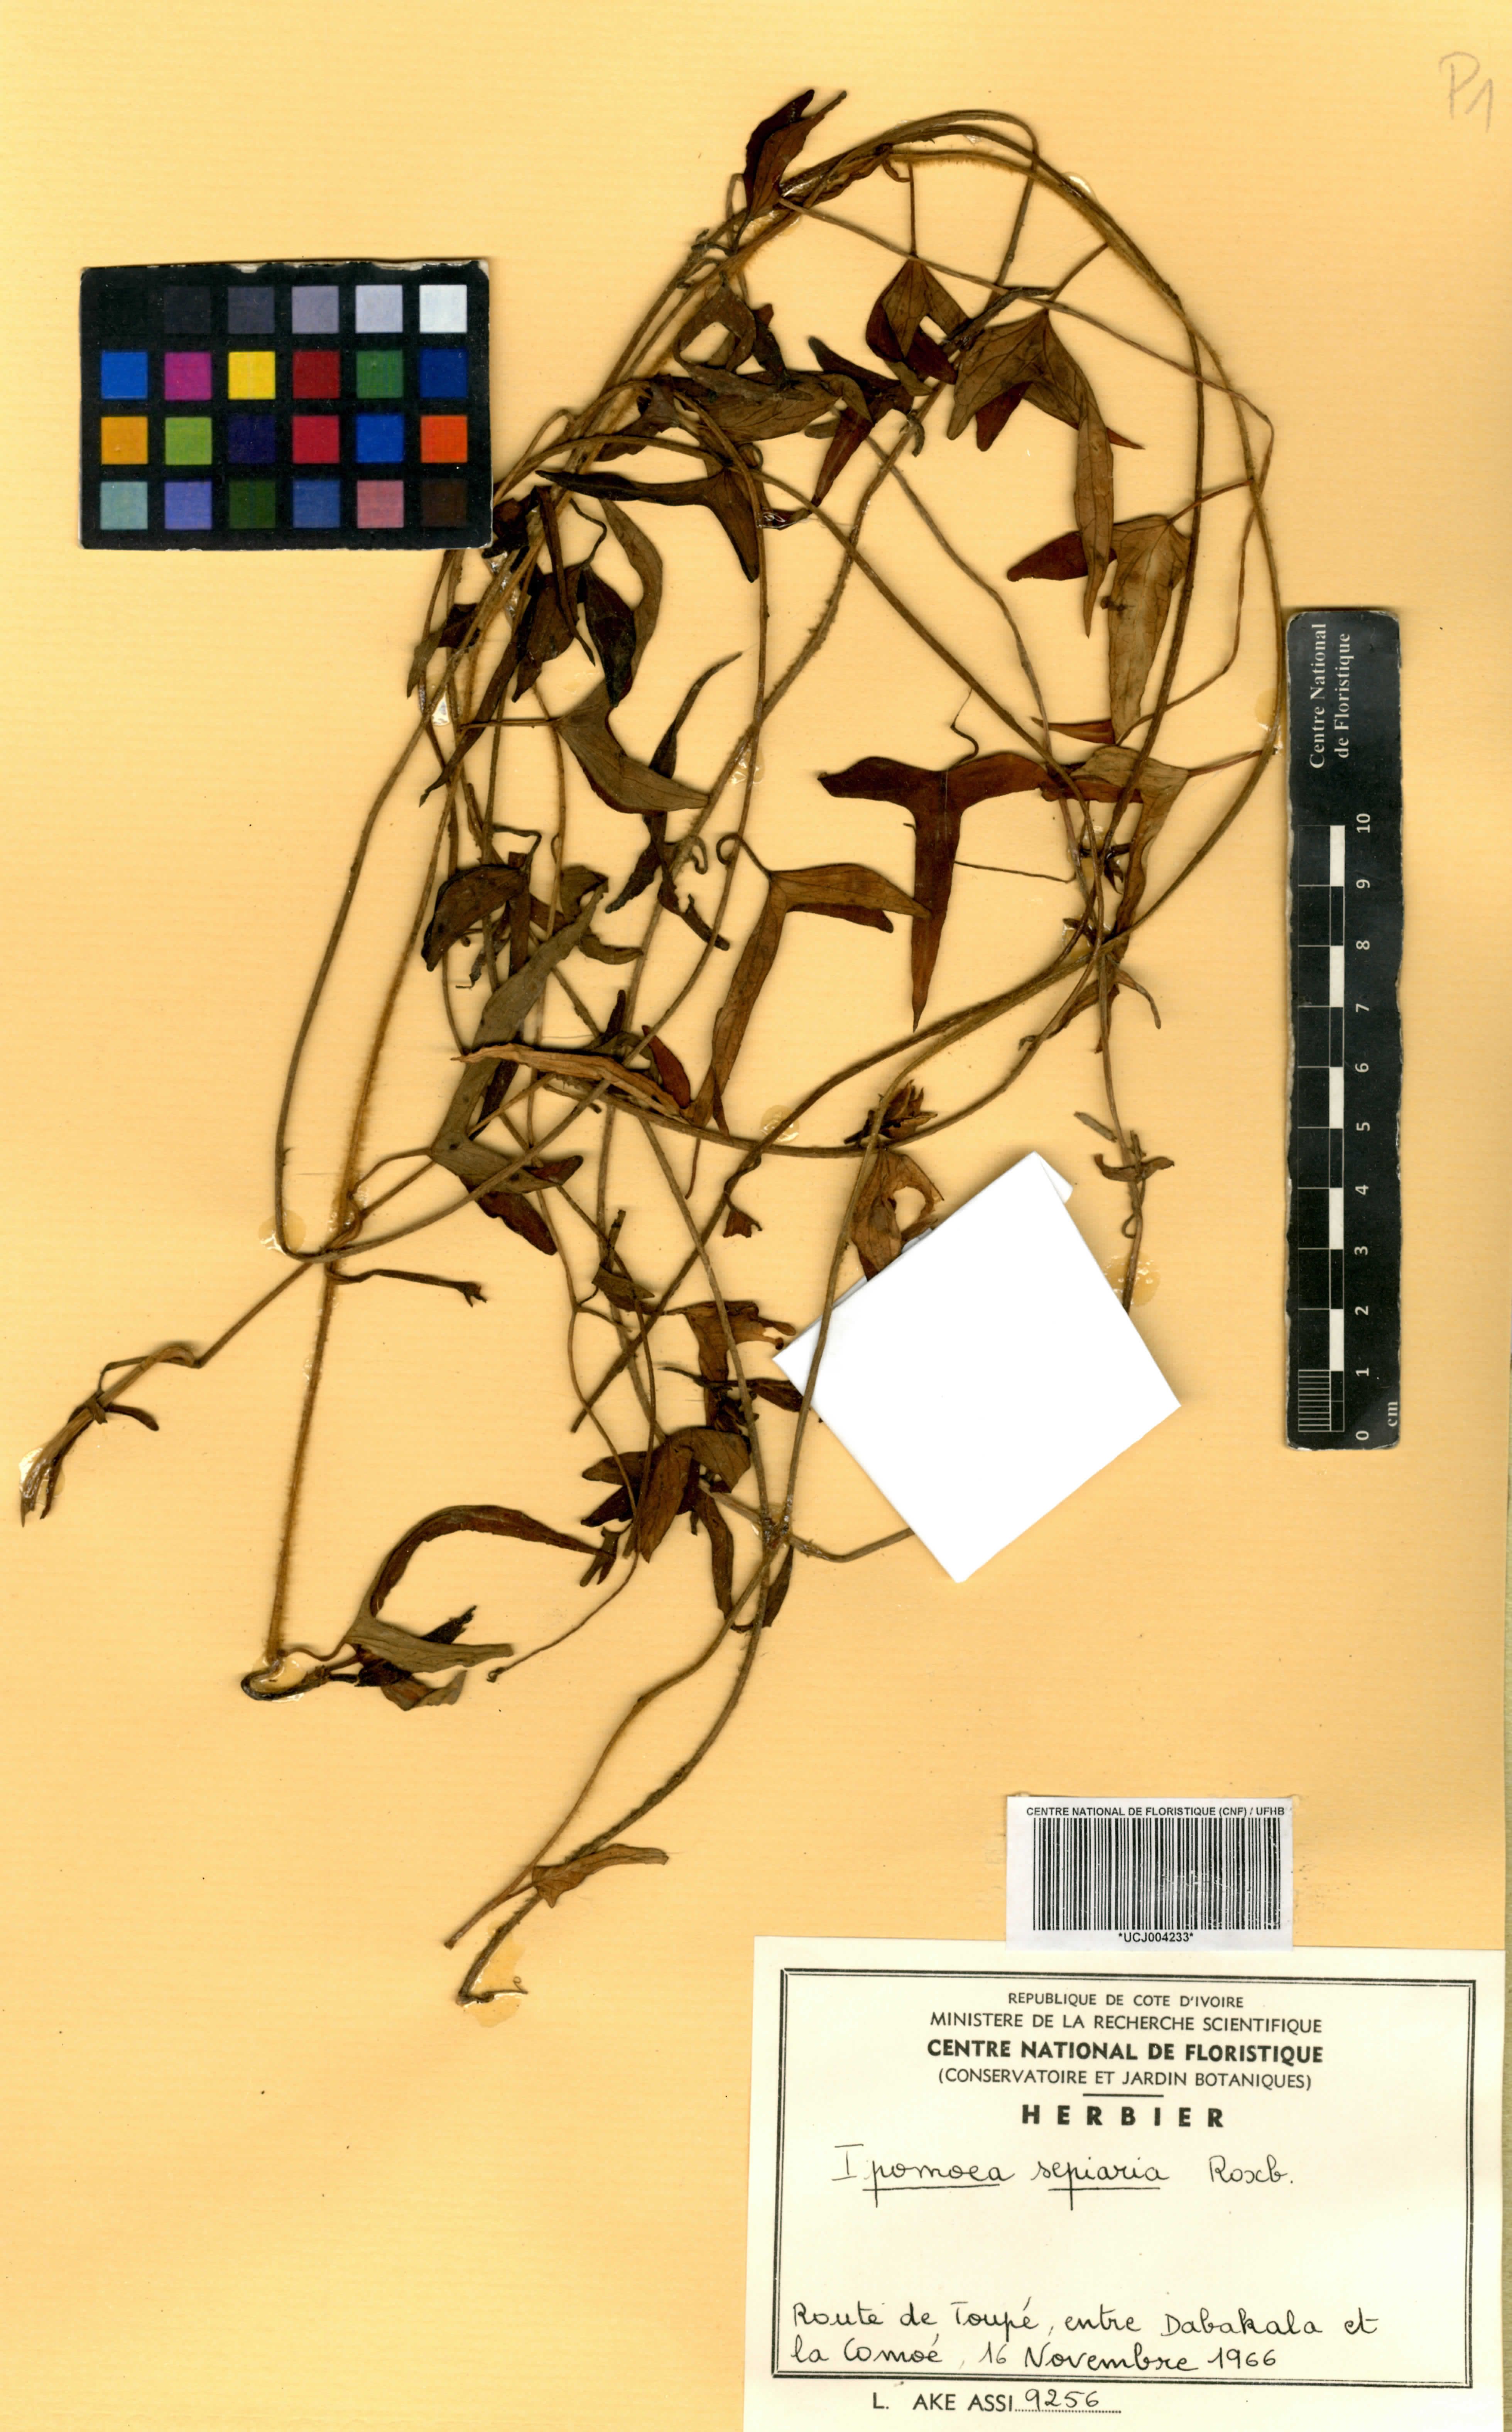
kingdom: Plantae
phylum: Tracheophyta
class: Magnoliopsida
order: Solanales
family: Convolvulaceae
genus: Ipomoea
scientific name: Ipomoea sagittifolia
